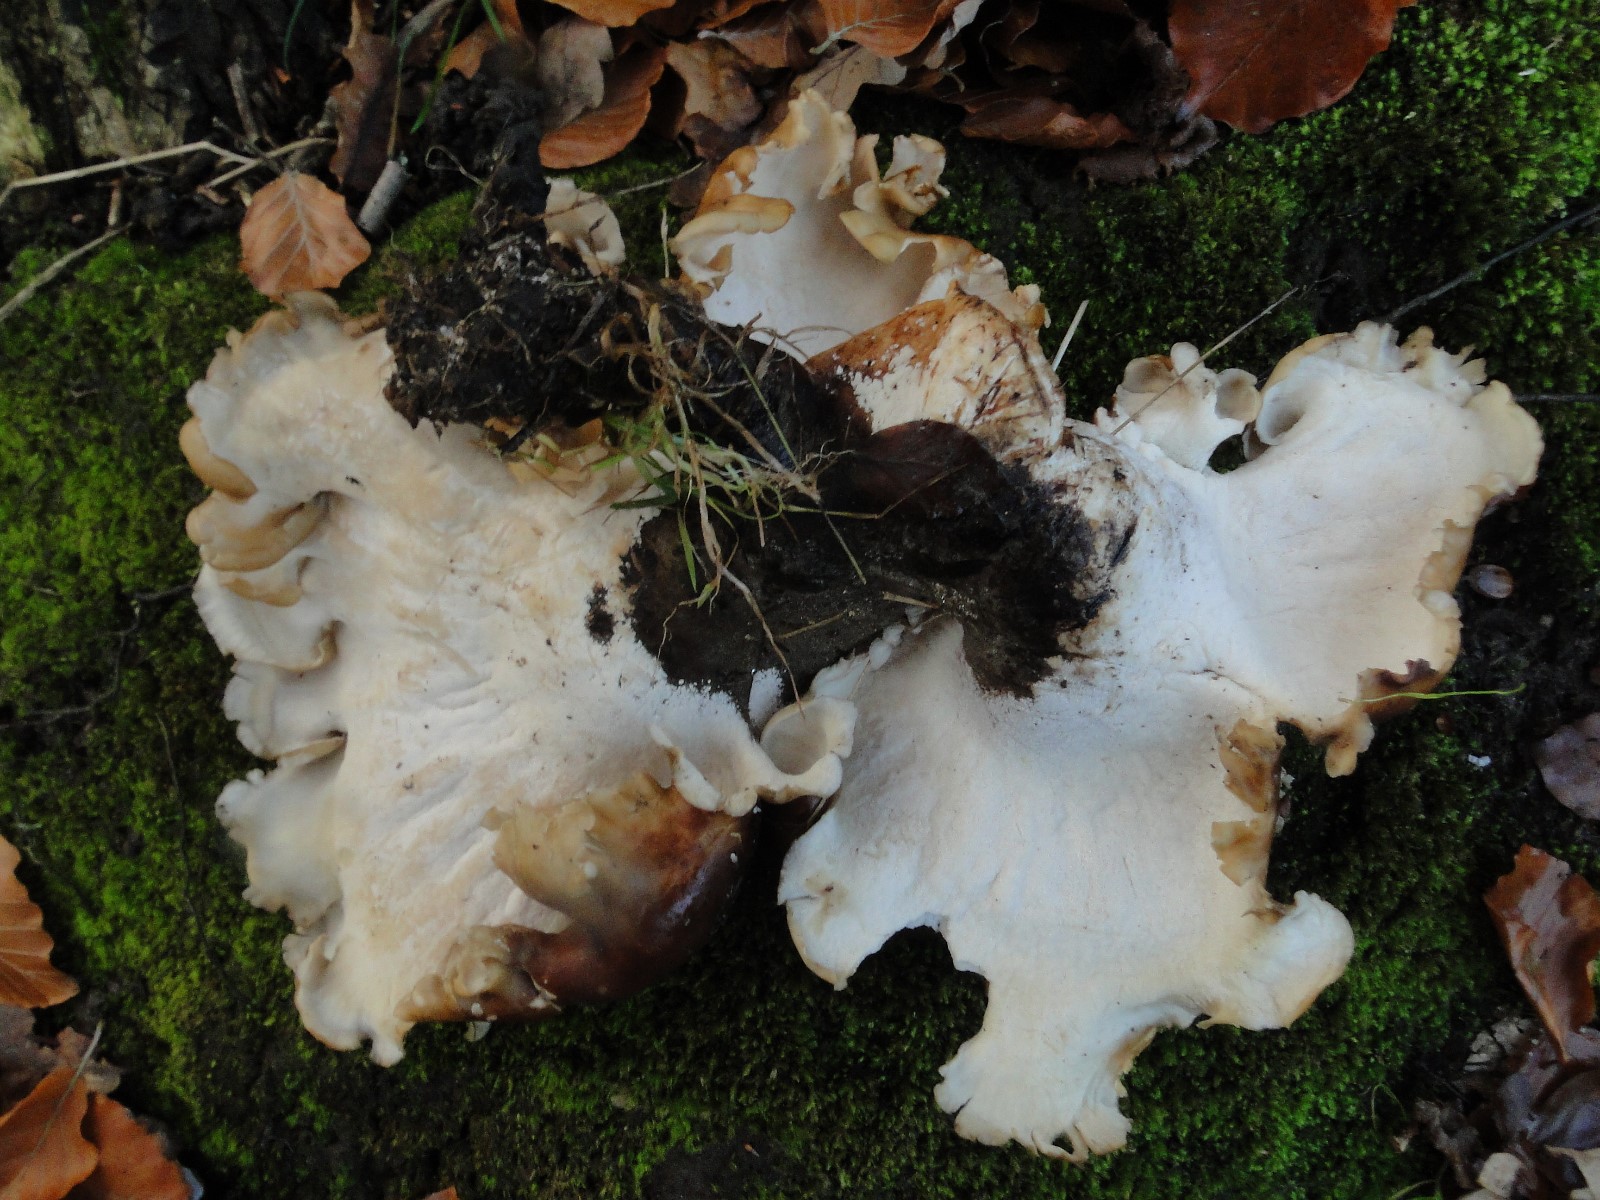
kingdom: Fungi
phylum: Basidiomycota
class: Agaricomycetes
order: Polyporales
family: Polyporaceae
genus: Picipes
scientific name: Picipes badius
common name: kastaniebrun stilkporesvamp
